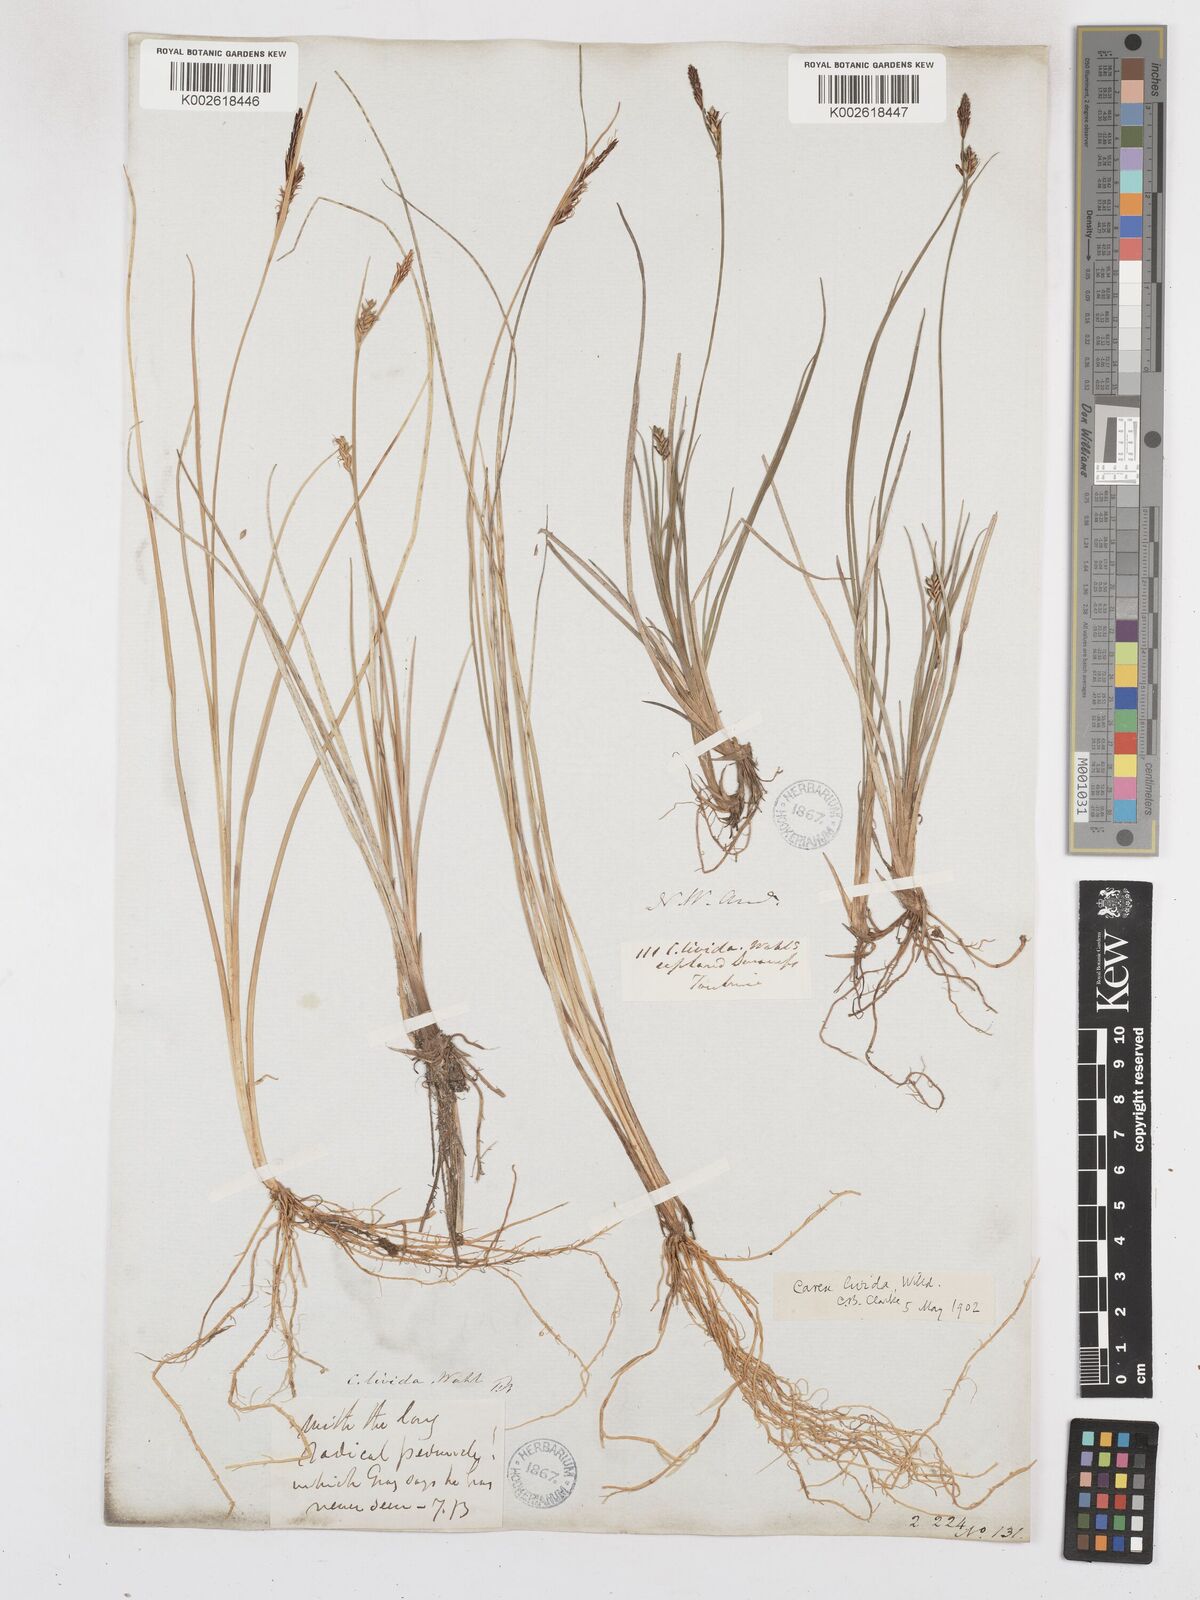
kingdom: Plantae
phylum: Tracheophyta
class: Liliopsida
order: Poales
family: Cyperaceae
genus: Carex
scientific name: Carex livida
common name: Livid sedge
